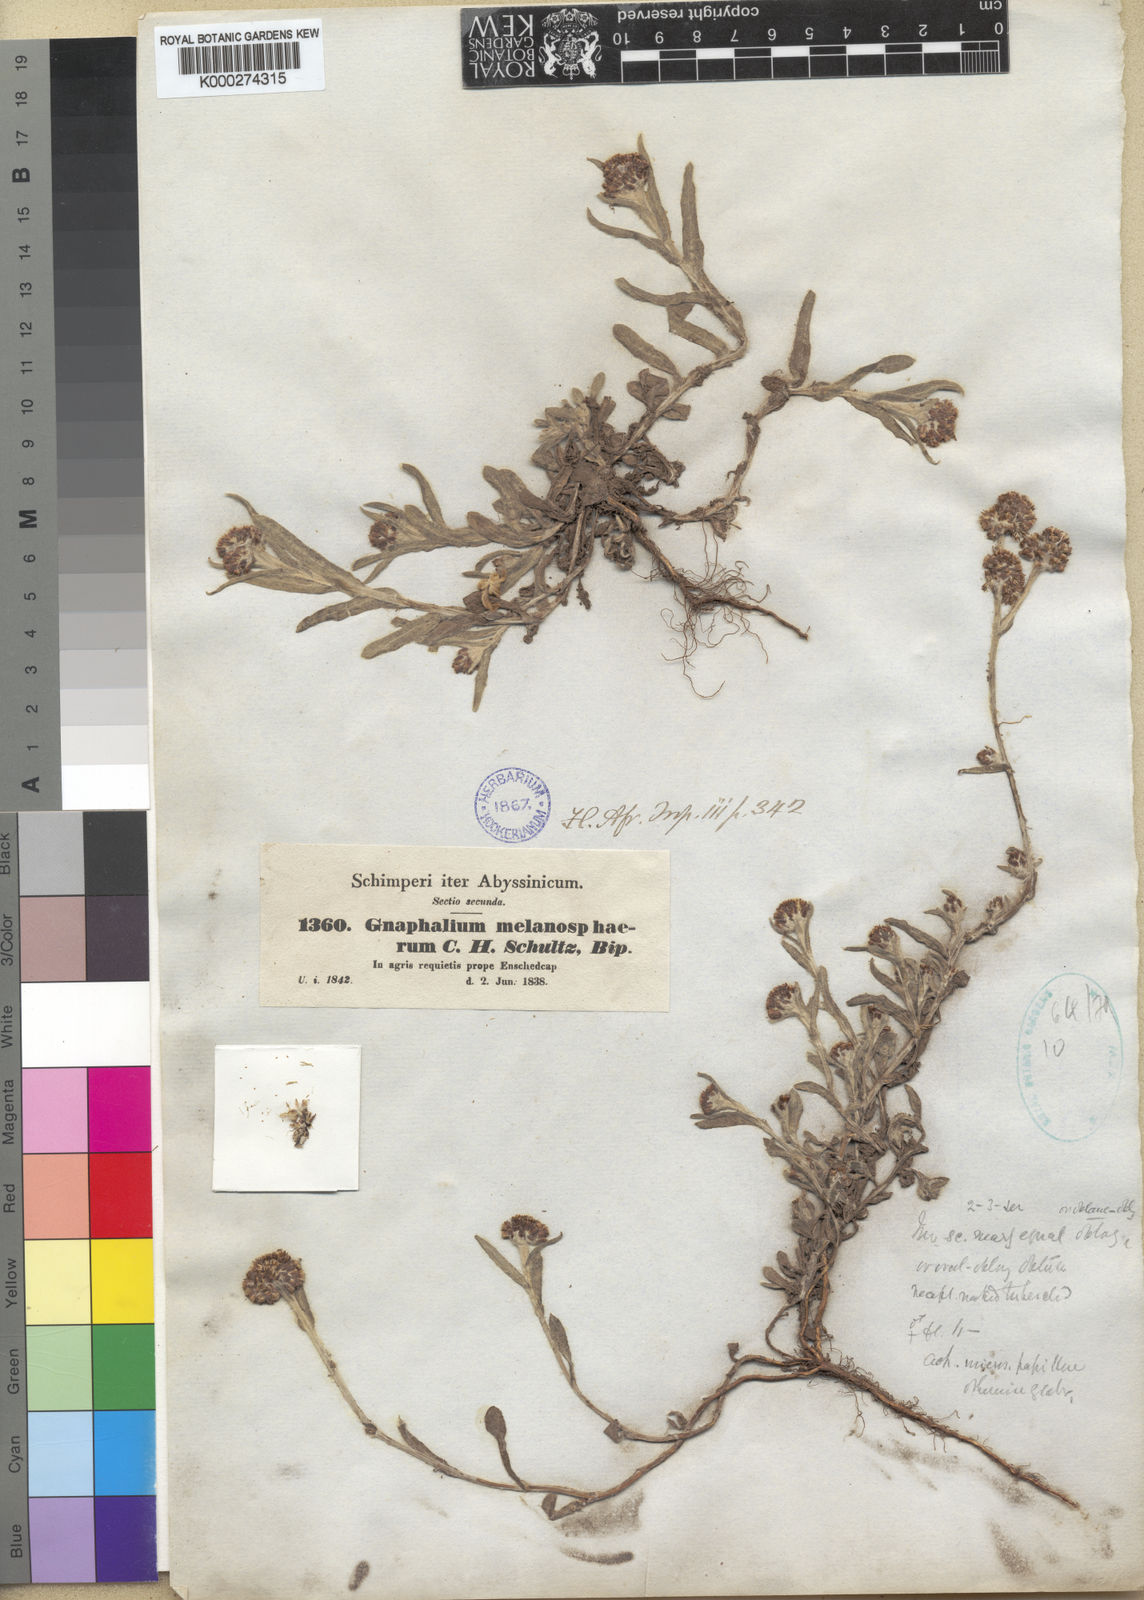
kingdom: Plantae
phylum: Tracheophyta
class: Magnoliopsida
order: Asterales
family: Asteraceae
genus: Pseudognaphalium
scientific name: Pseudognaphalium melanosphaerum
